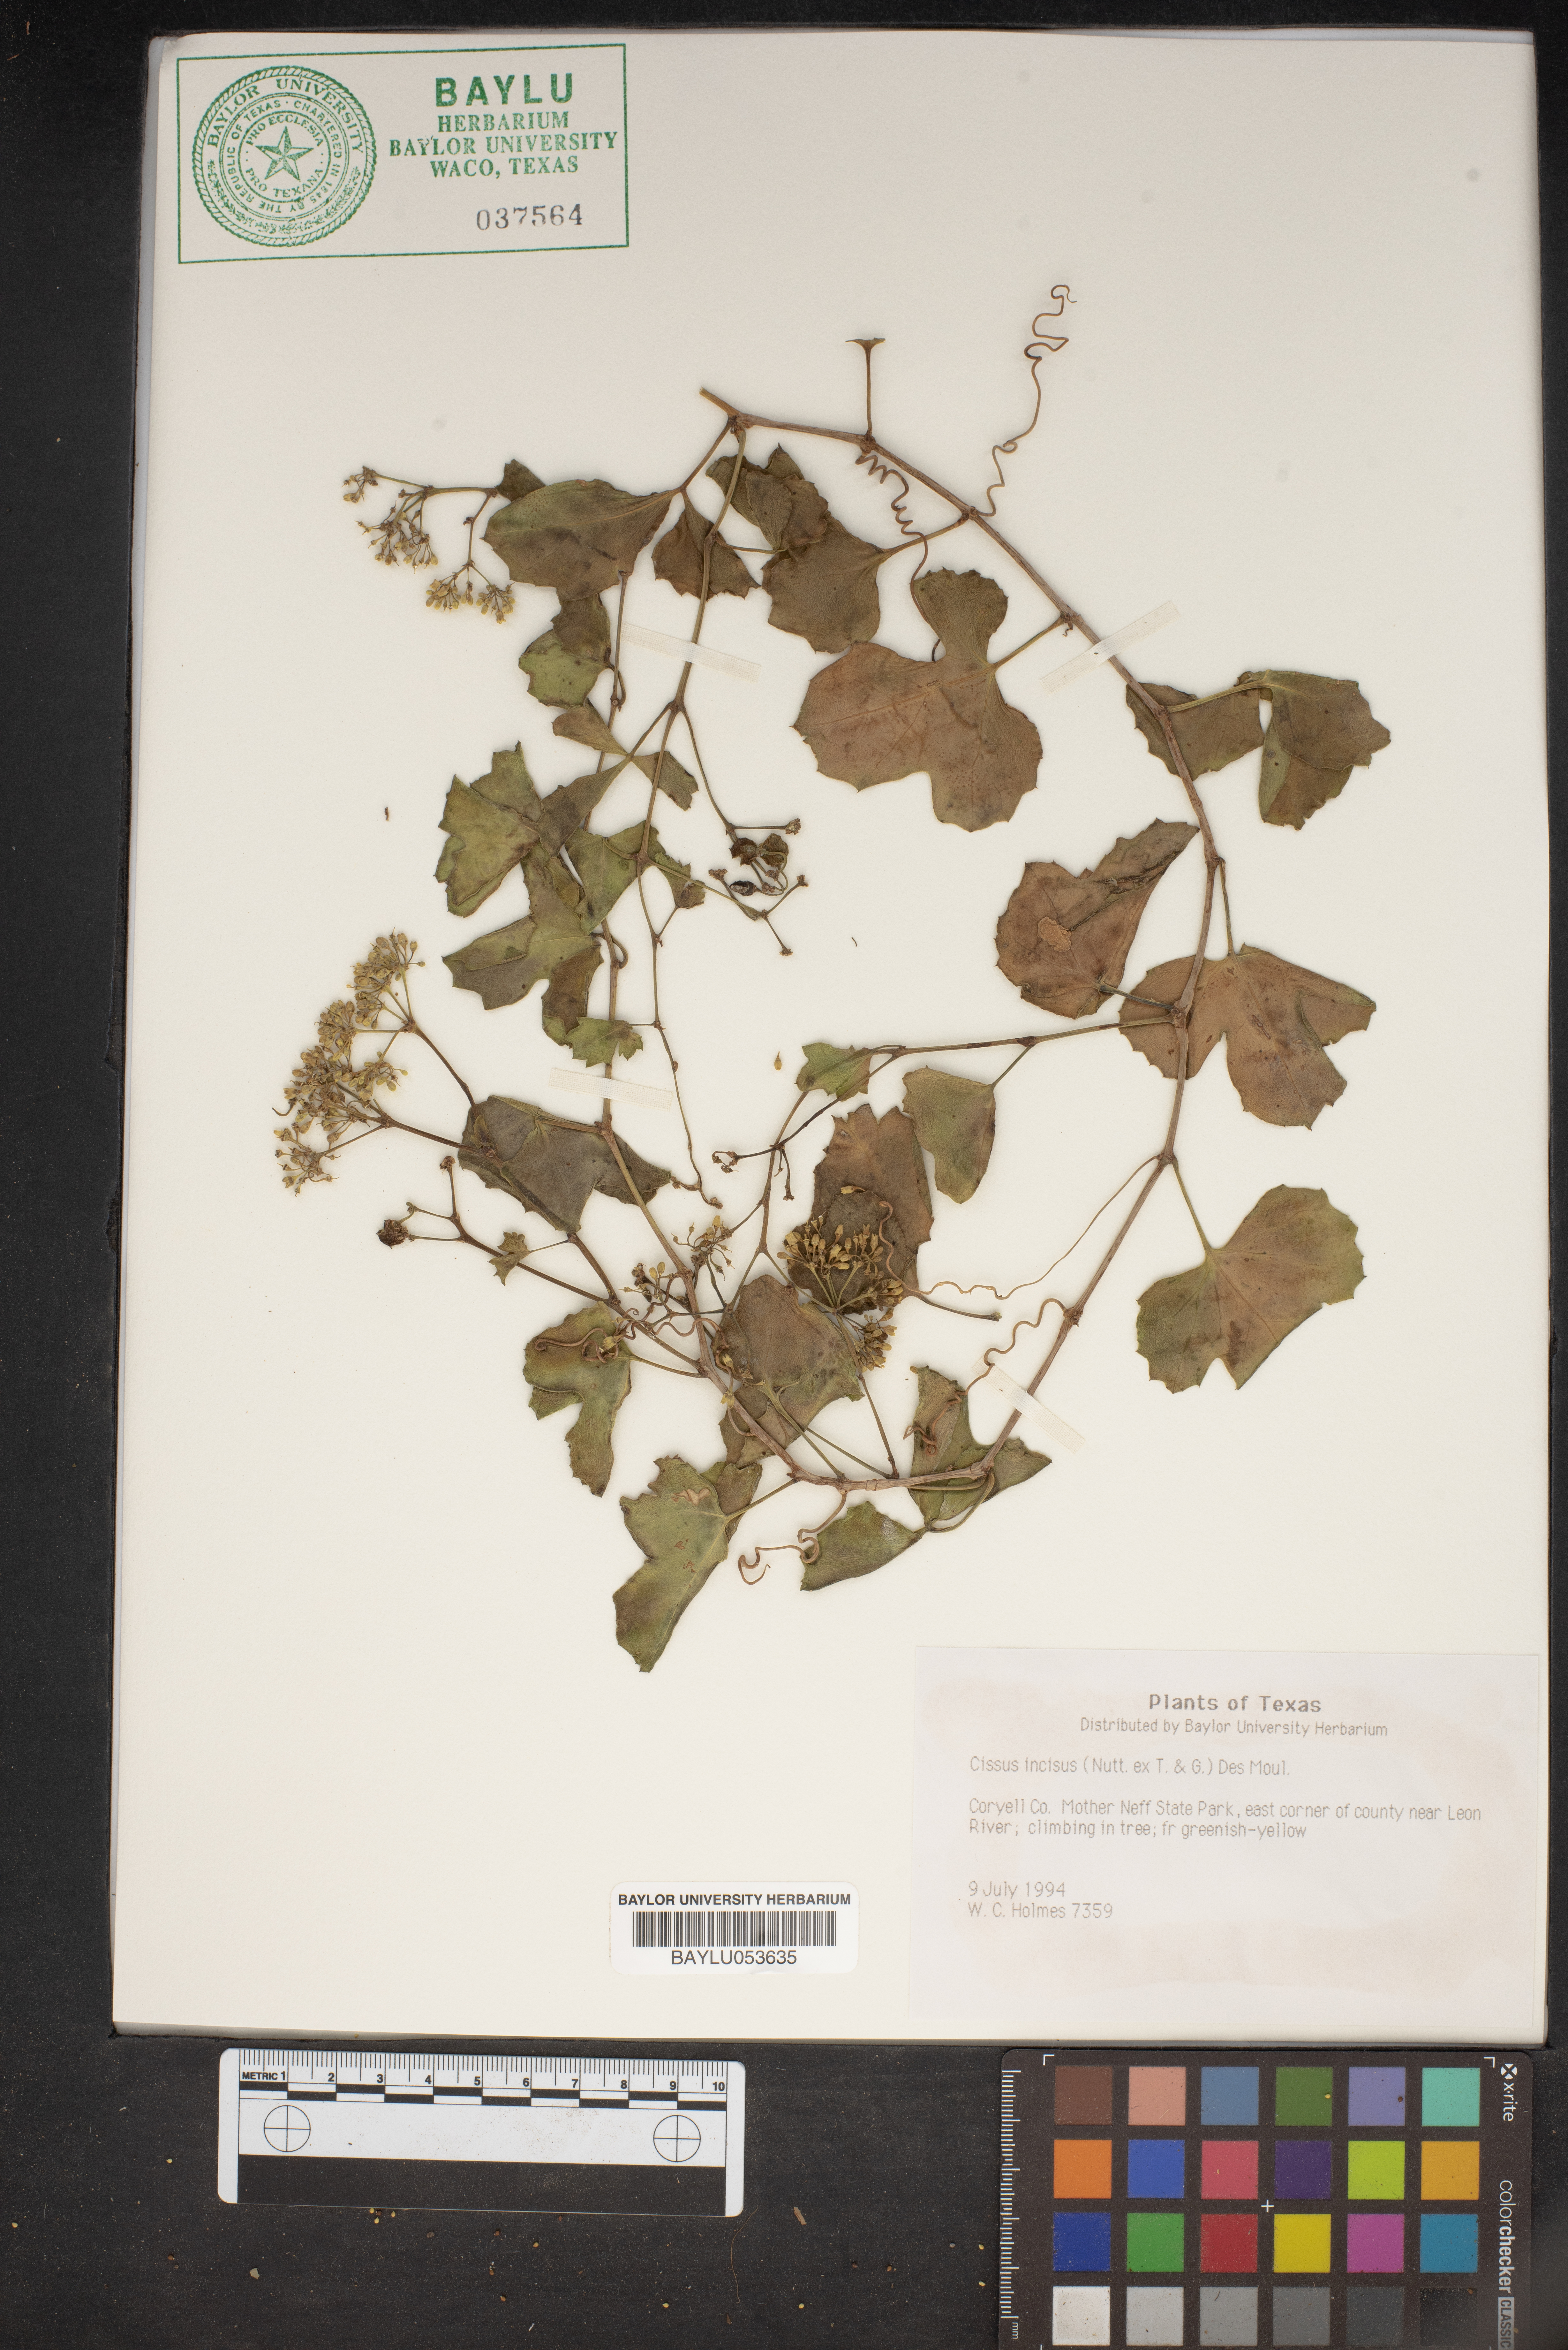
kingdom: Plantae
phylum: Tracheophyta
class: Magnoliopsida
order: Vitales
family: Vitaceae
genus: Cissus
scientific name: Cissus trifoliata
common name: Vine-sorrel
